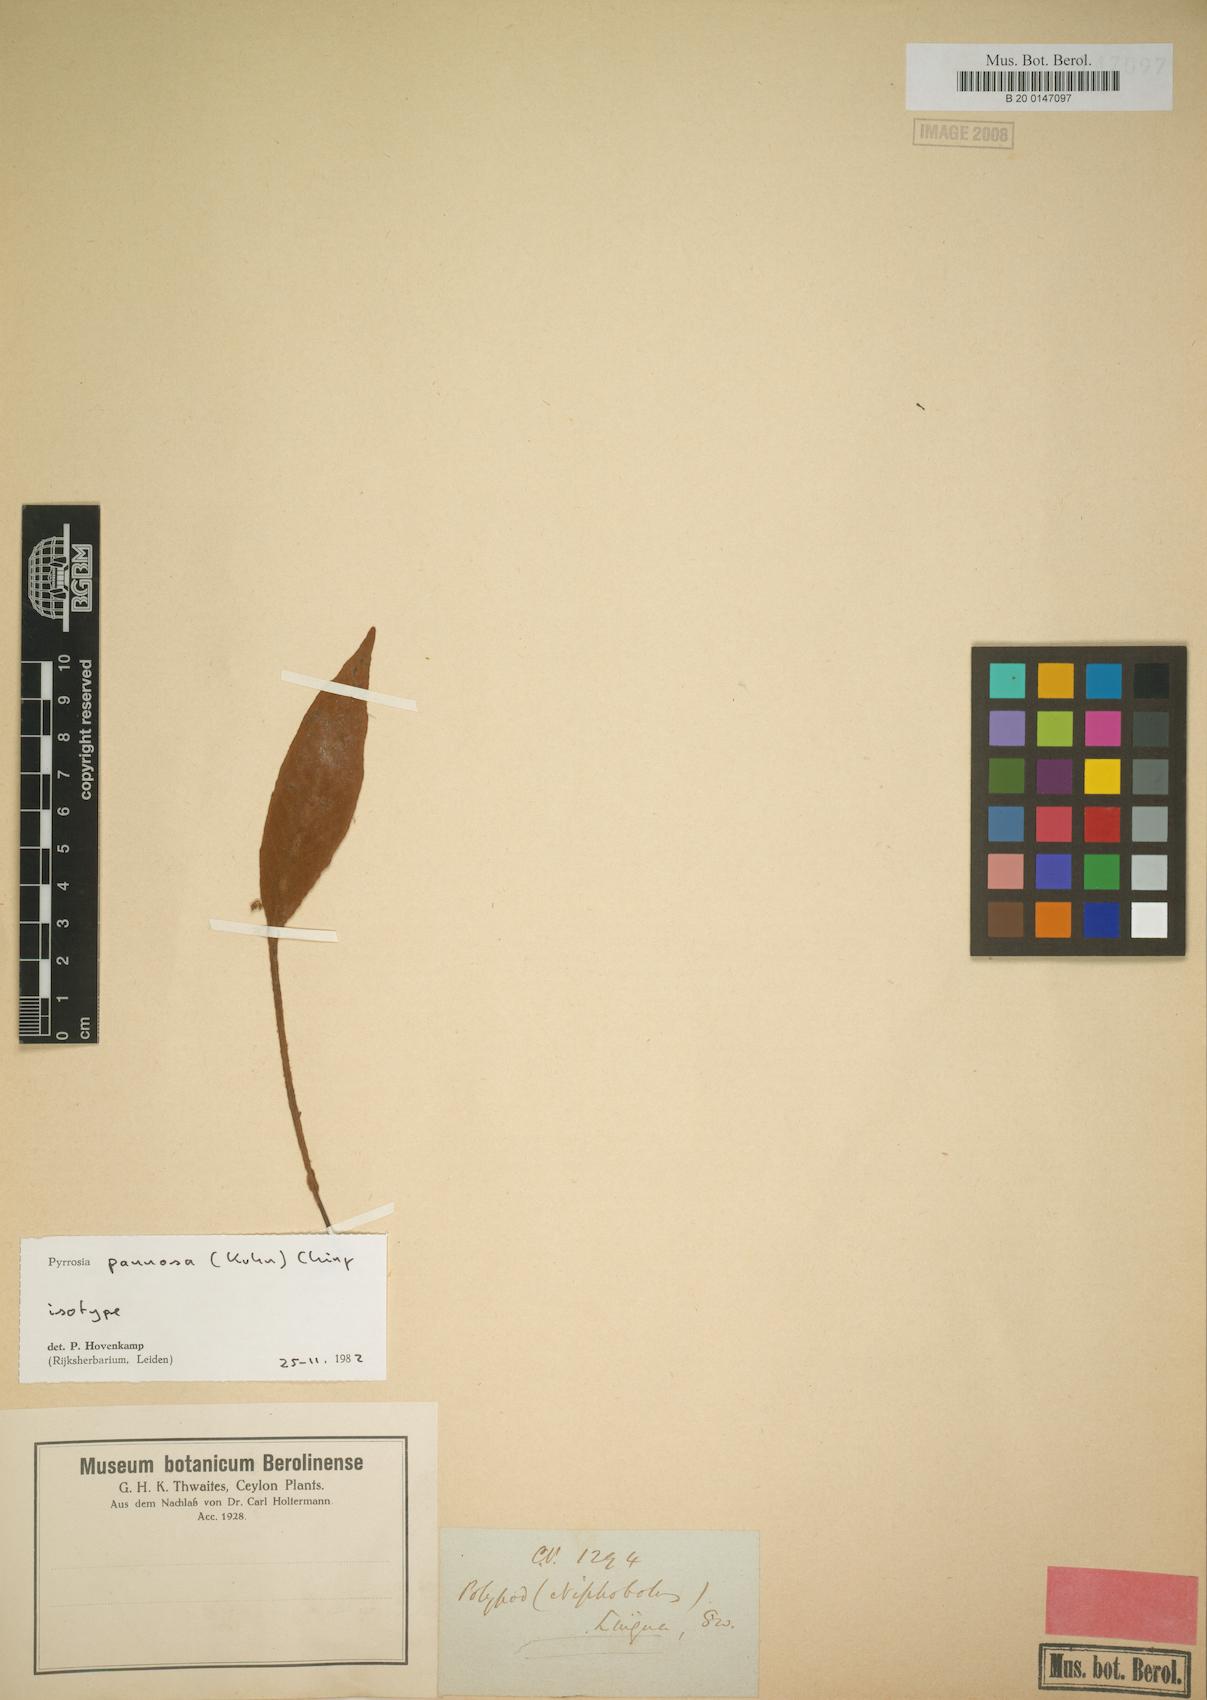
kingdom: Plantae
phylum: Tracheophyta
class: Polypodiopsida
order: Polypodiales
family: Polypodiaceae
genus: Pyrrosia
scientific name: Pyrrosia pannosa
